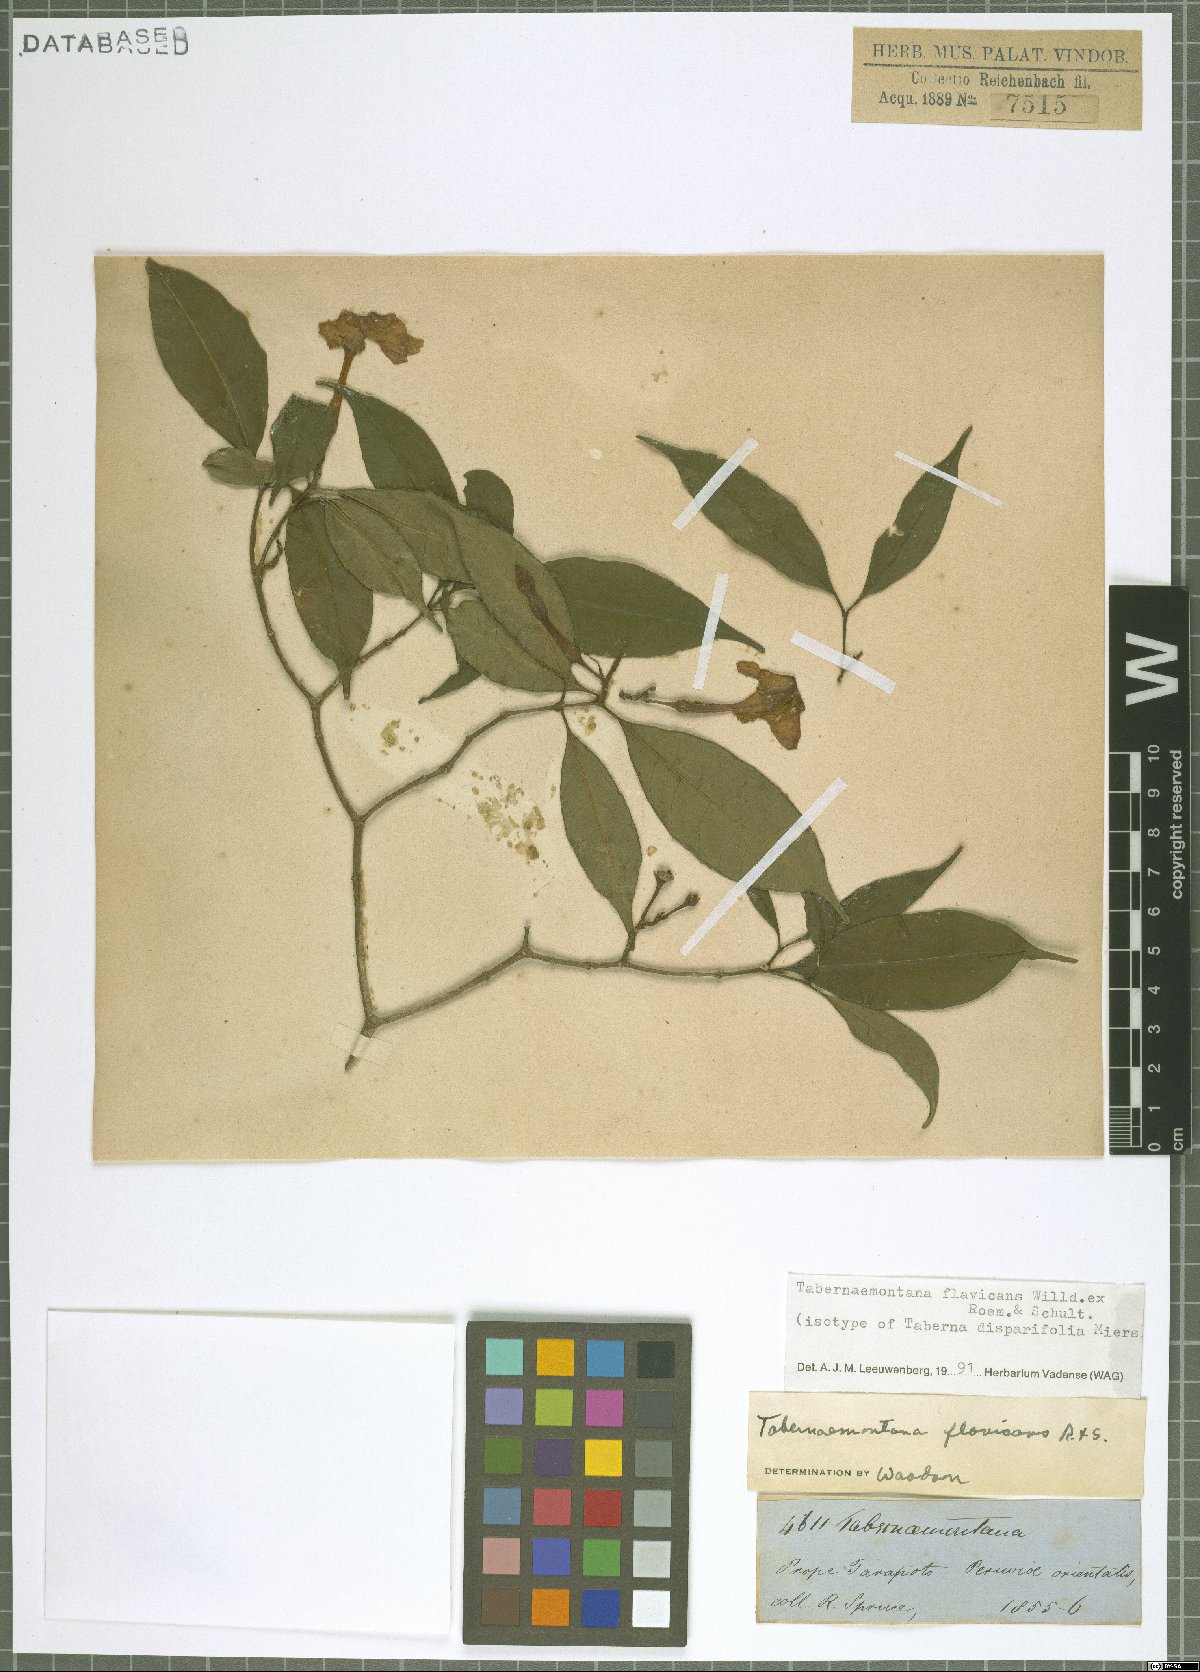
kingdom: Plantae
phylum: Tracheophyta
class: Magnoliopsida
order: Gentianales
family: Apocynaceae
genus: Tabernaemontana
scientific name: Tabernaemontana flavicans
